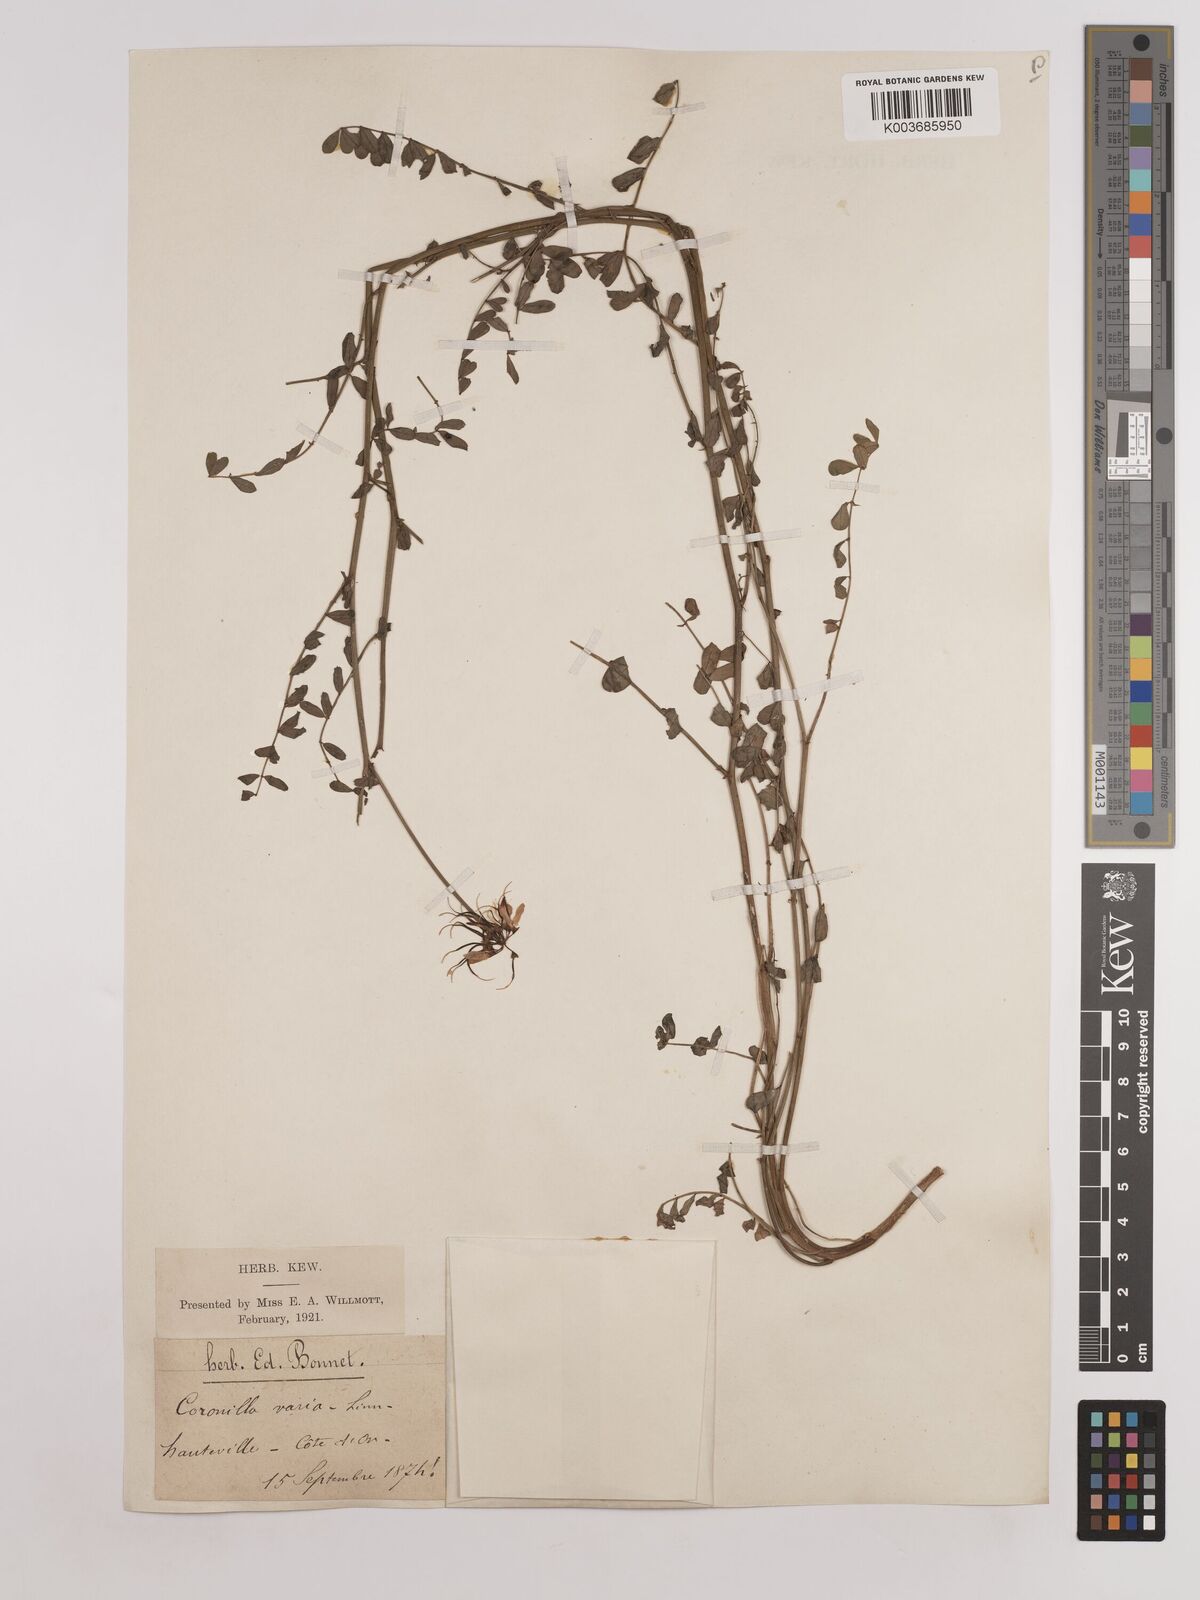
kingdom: Plantae
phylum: Tracheophyta
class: Magnoliopsida
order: Fabales
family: Fabaceae
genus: Coronilla
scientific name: Coronilla varia
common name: Crownvetch
